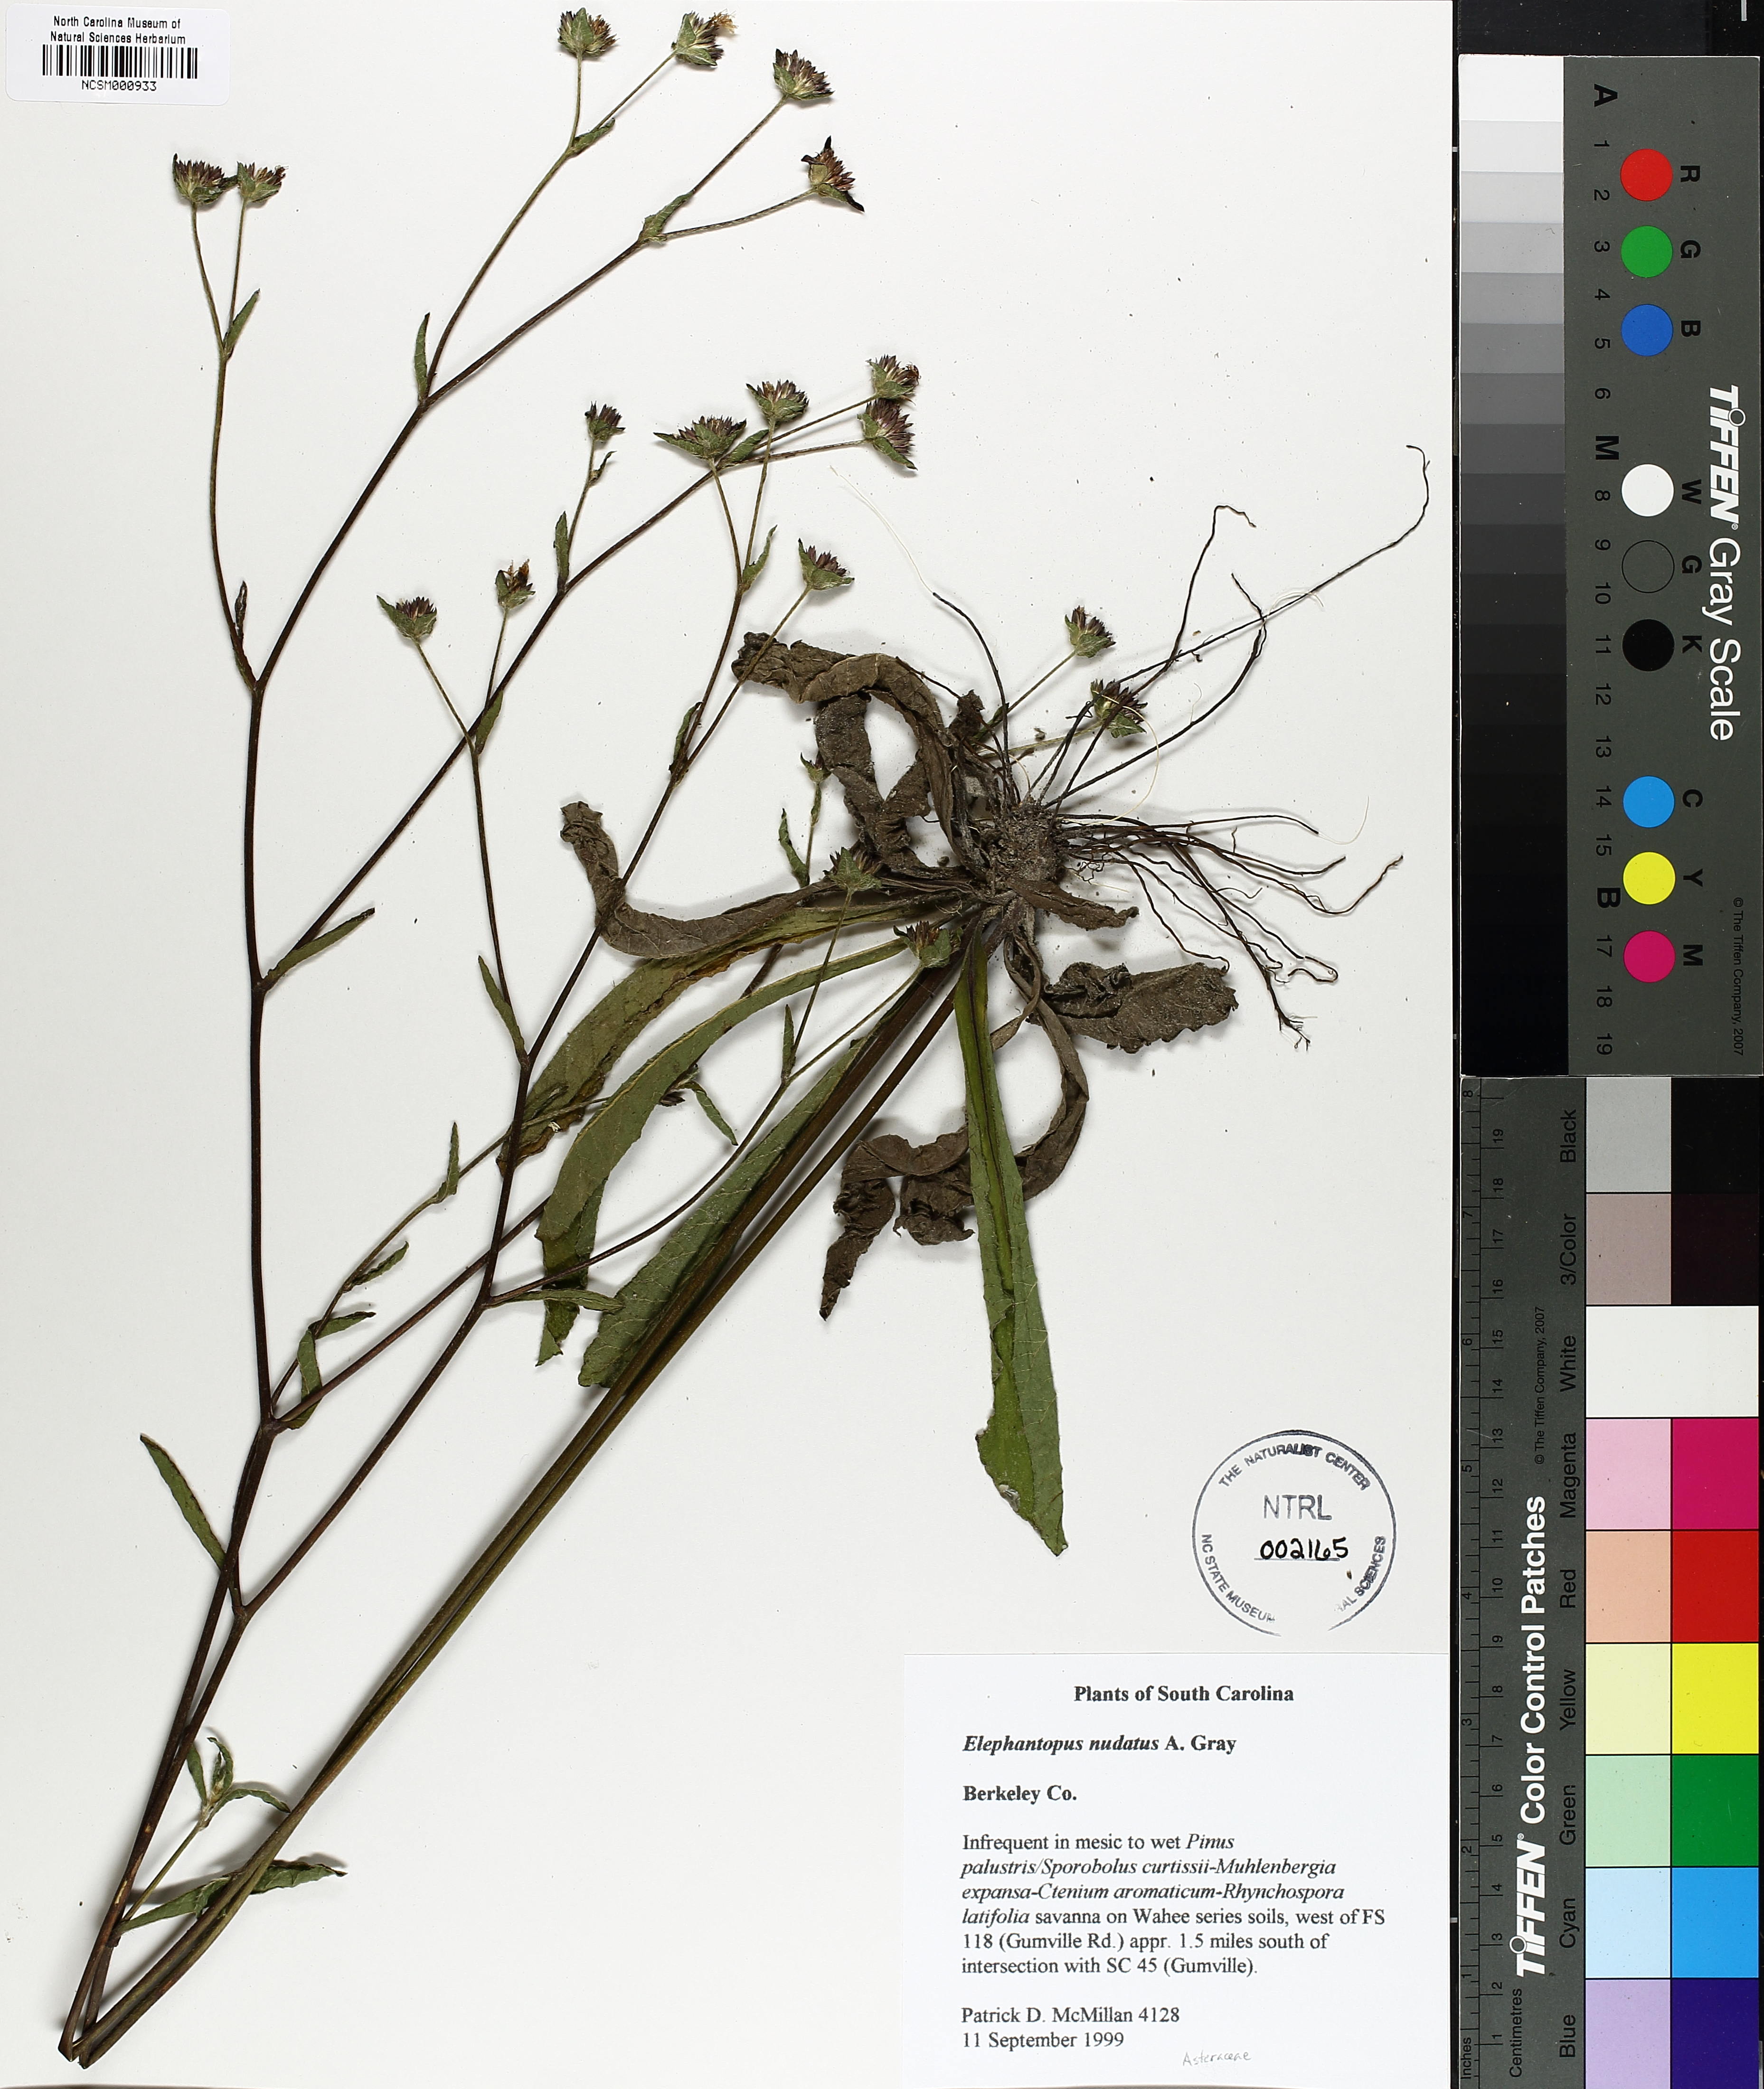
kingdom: Plantae
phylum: Tracheophyta
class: Magnoliopsida
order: Asterales
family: Asteraceae
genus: Elephantopus
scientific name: Elephantopus nudatus
